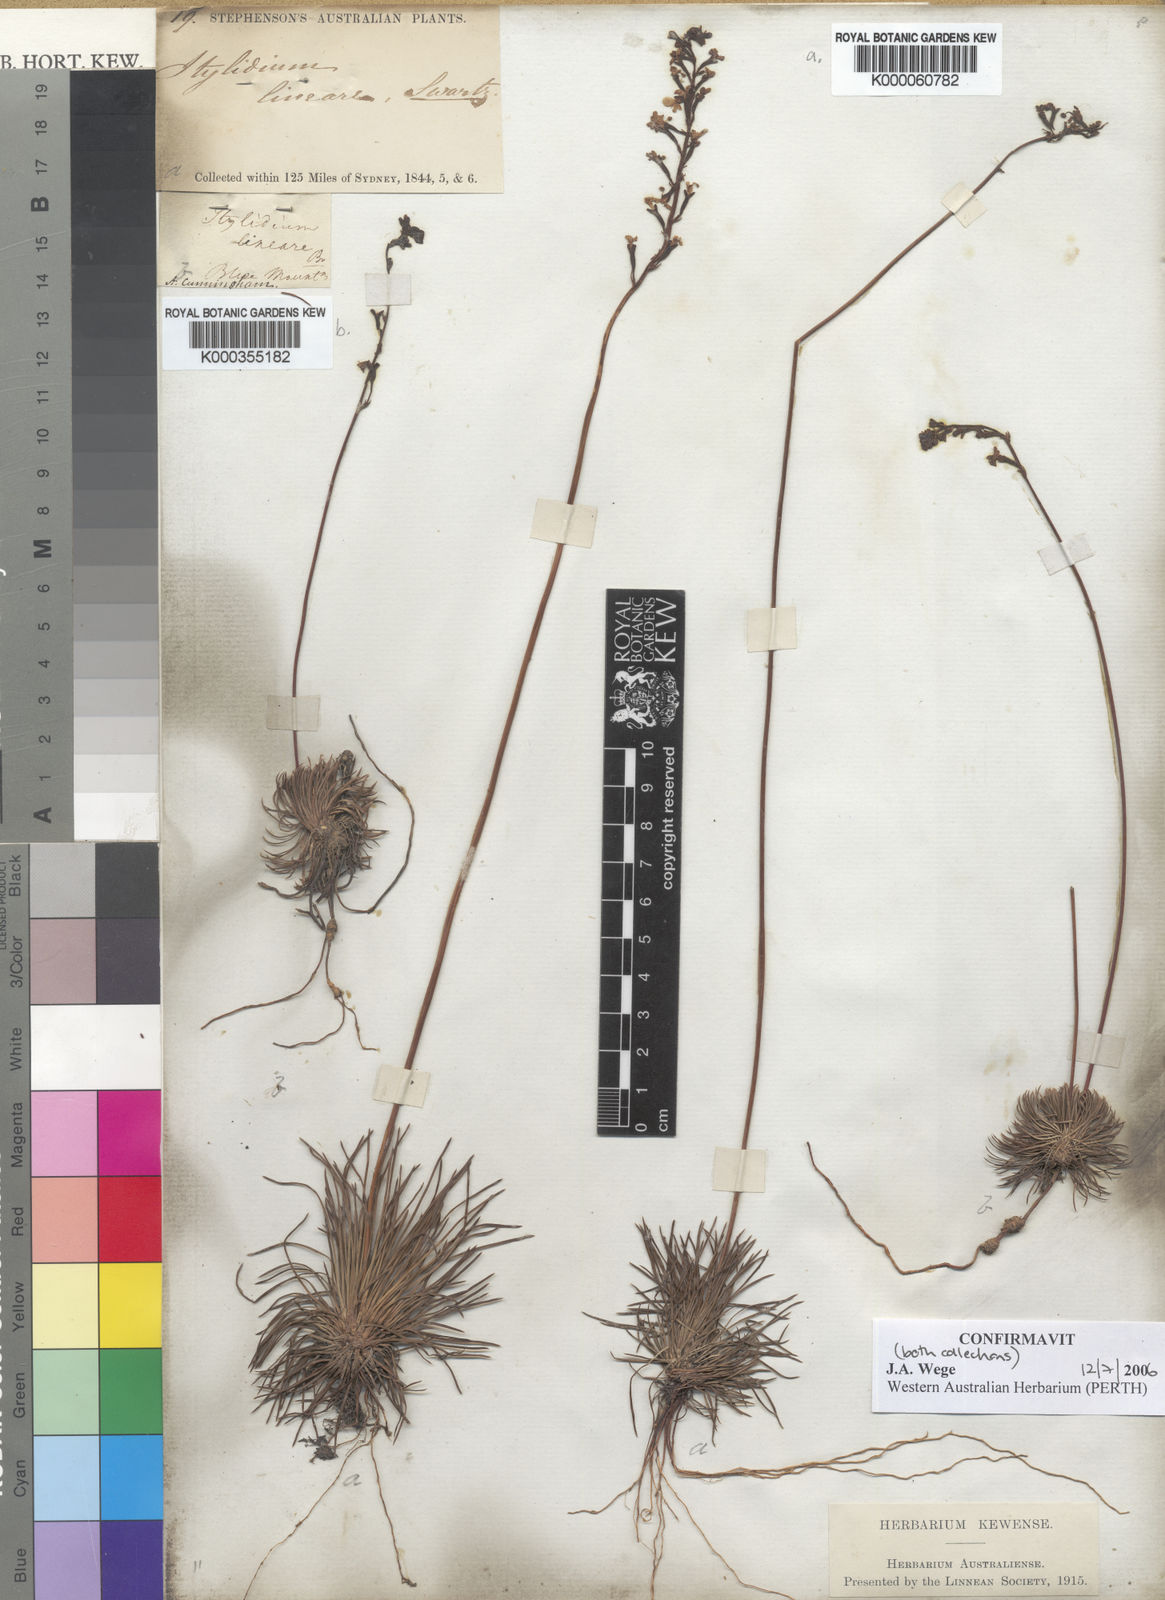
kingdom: Plantae
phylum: Tracheophyta
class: Magnoliopsida
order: Asterales
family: Stylidiaceae
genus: Stylidium
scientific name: Stylidium lineare
